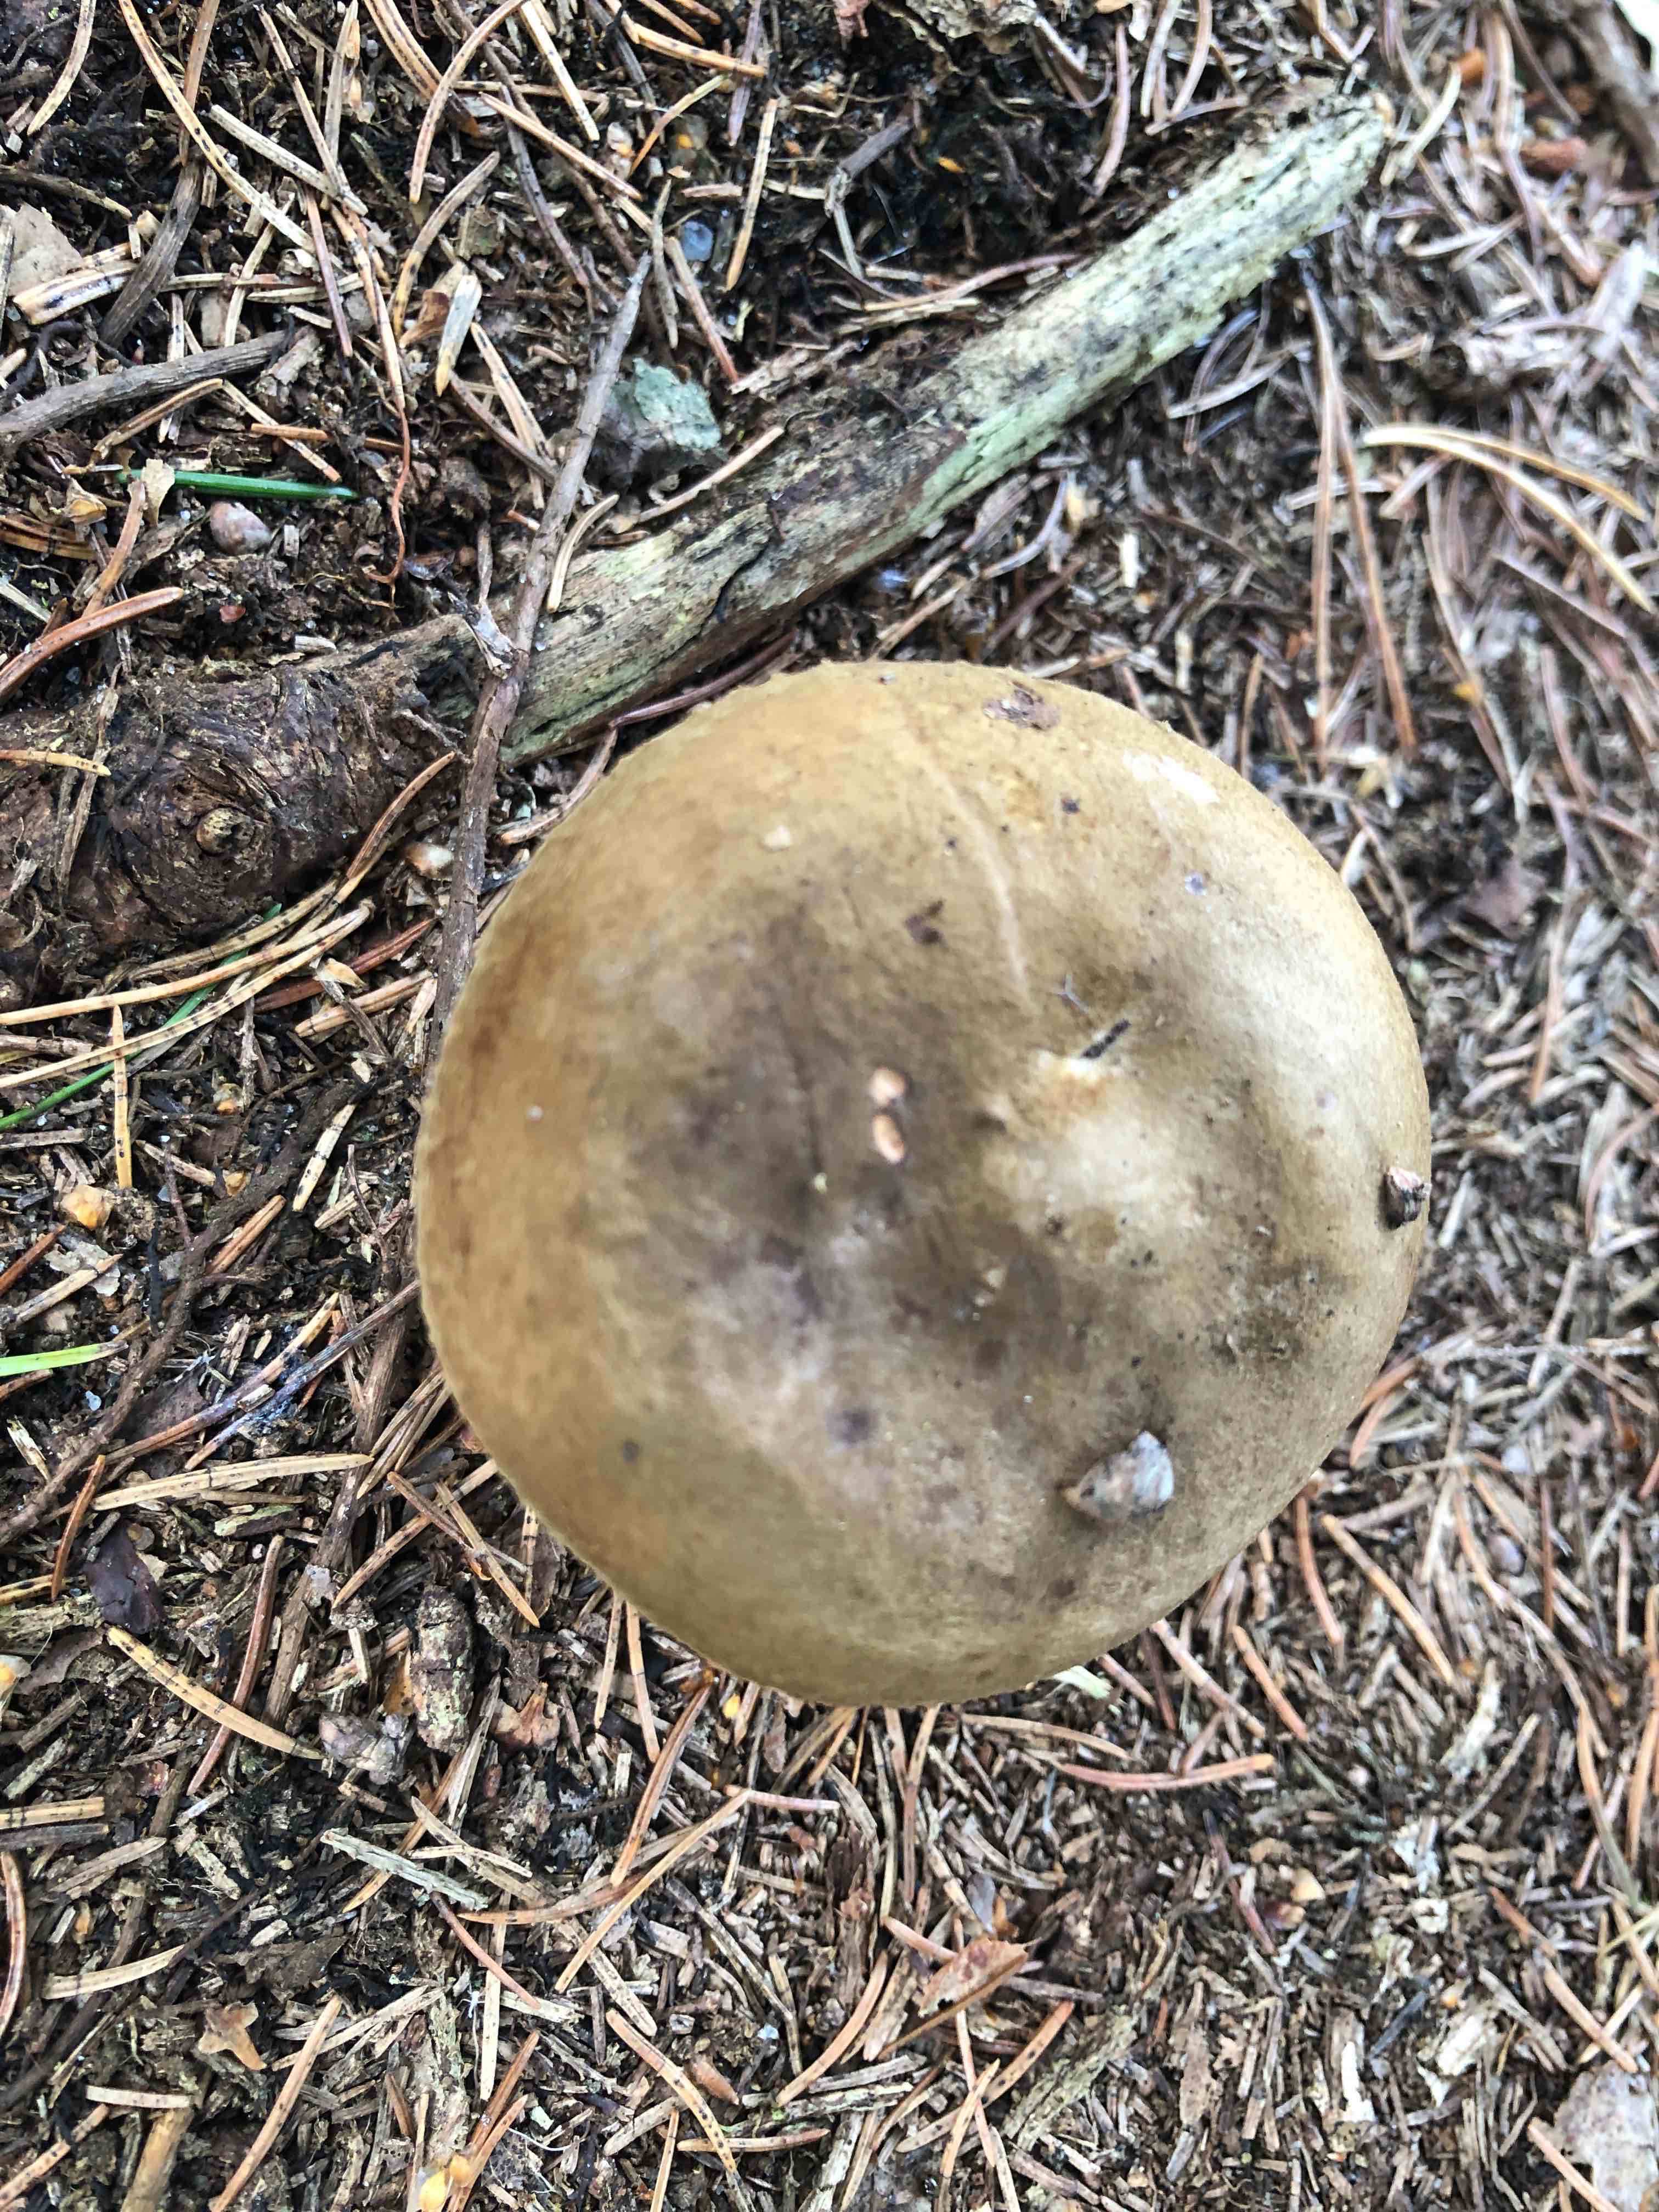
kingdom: Fungi
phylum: Basidiomycota
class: Agaricomycetes
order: Boletales
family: Paxillaceae
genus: Paxillus
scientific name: Paxillus involutus
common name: almindelig netbladhat
